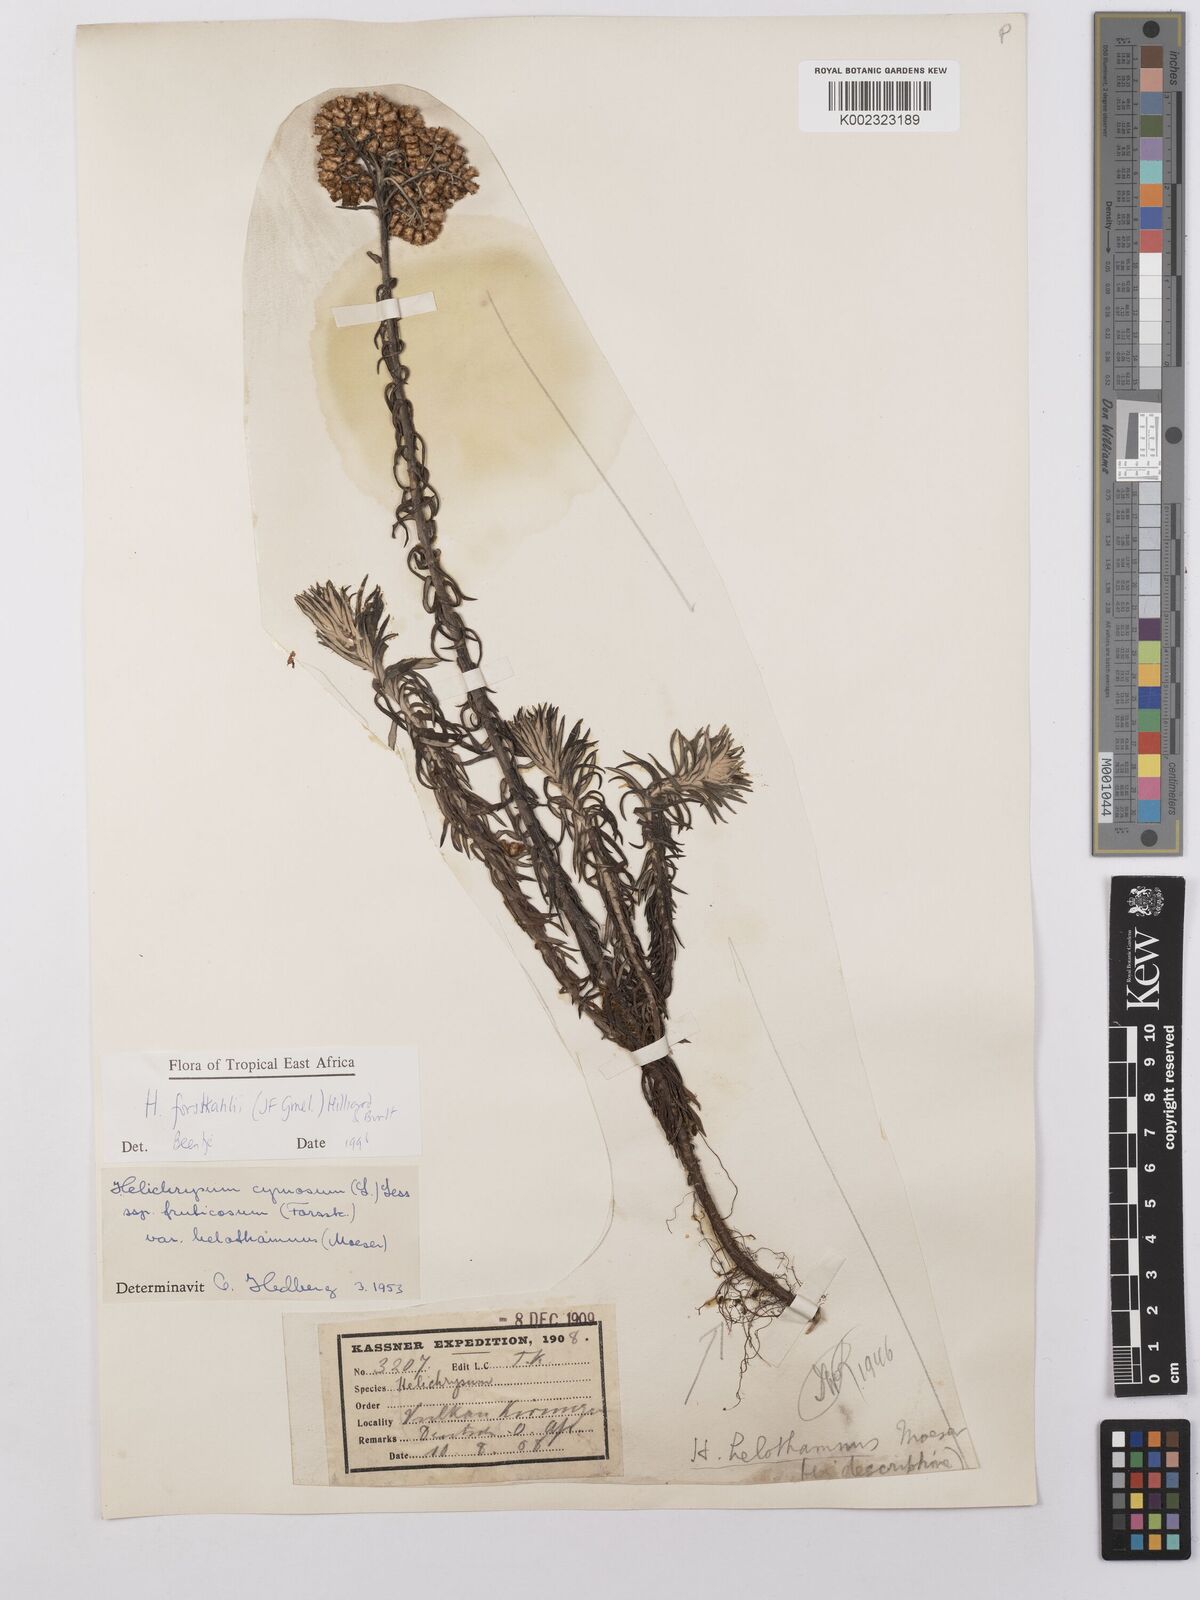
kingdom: Plantae
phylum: Tracheophyta
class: Magnoliopsida
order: Asterales
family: Asteraceae
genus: Helichrysum
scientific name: Helichrysum forskahlii
